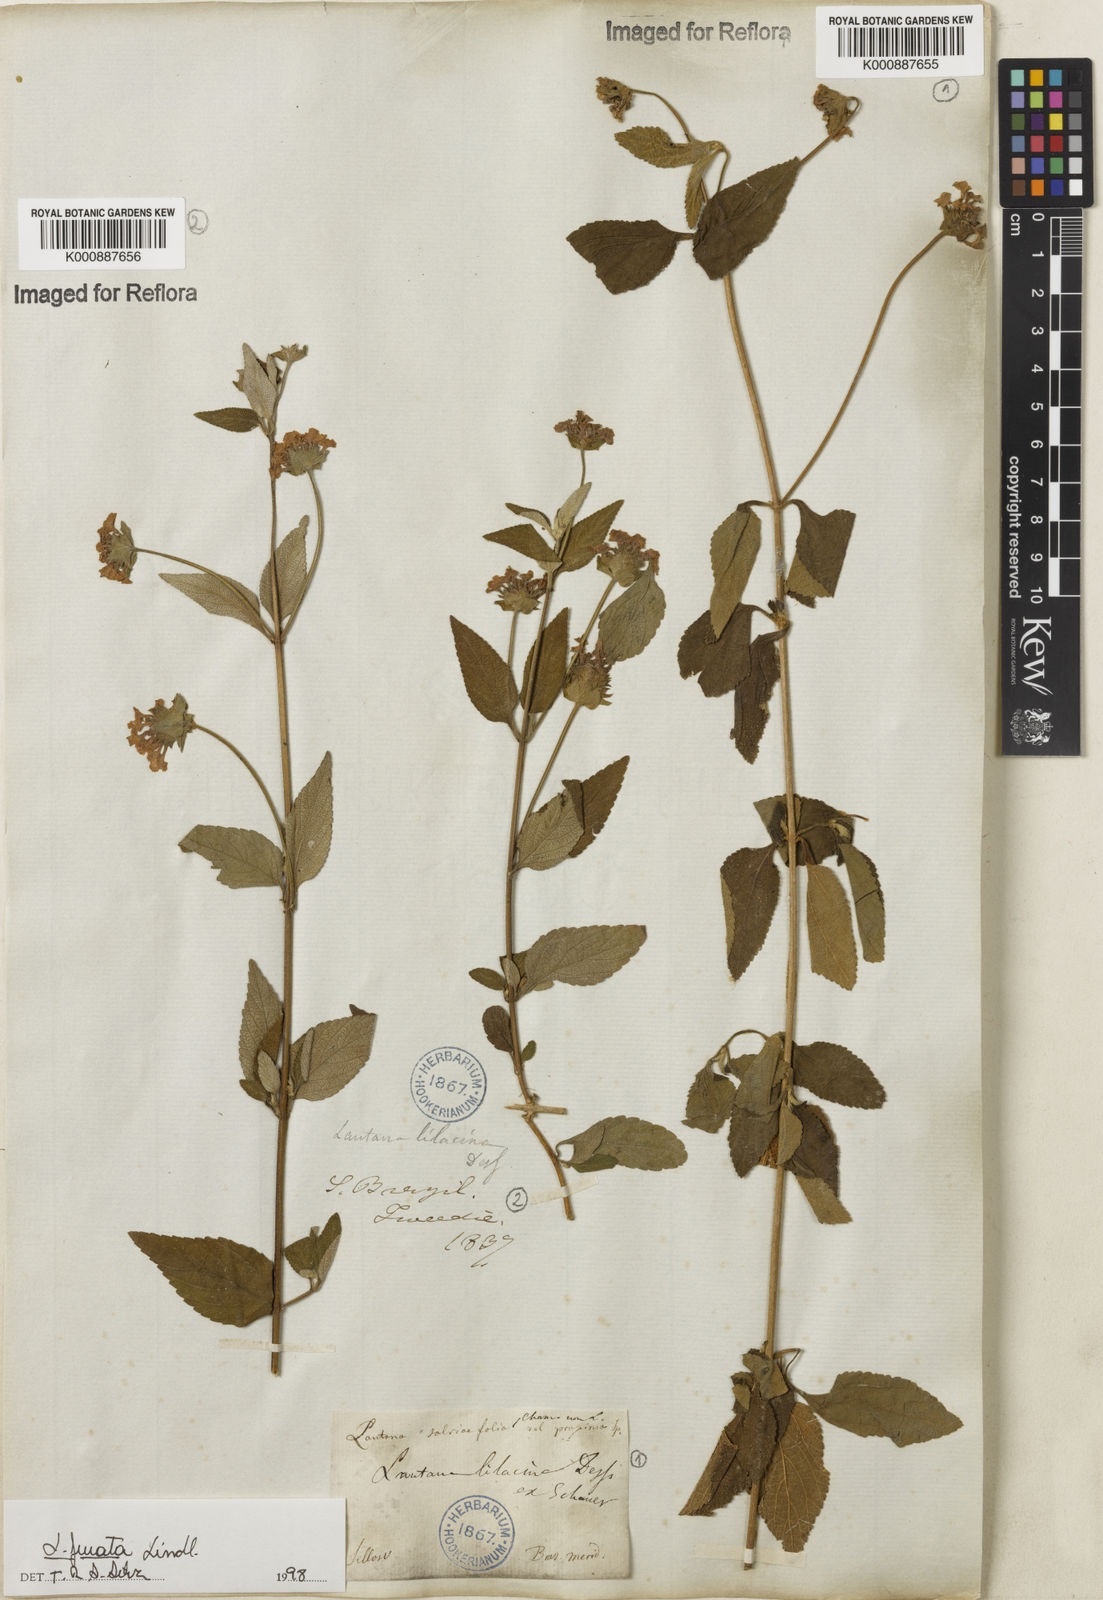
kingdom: Plantae
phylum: Tracheophyta
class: Magnoliopsida
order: Lamiales
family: Verbenaceae
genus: Lantana
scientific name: Lantana fucata
